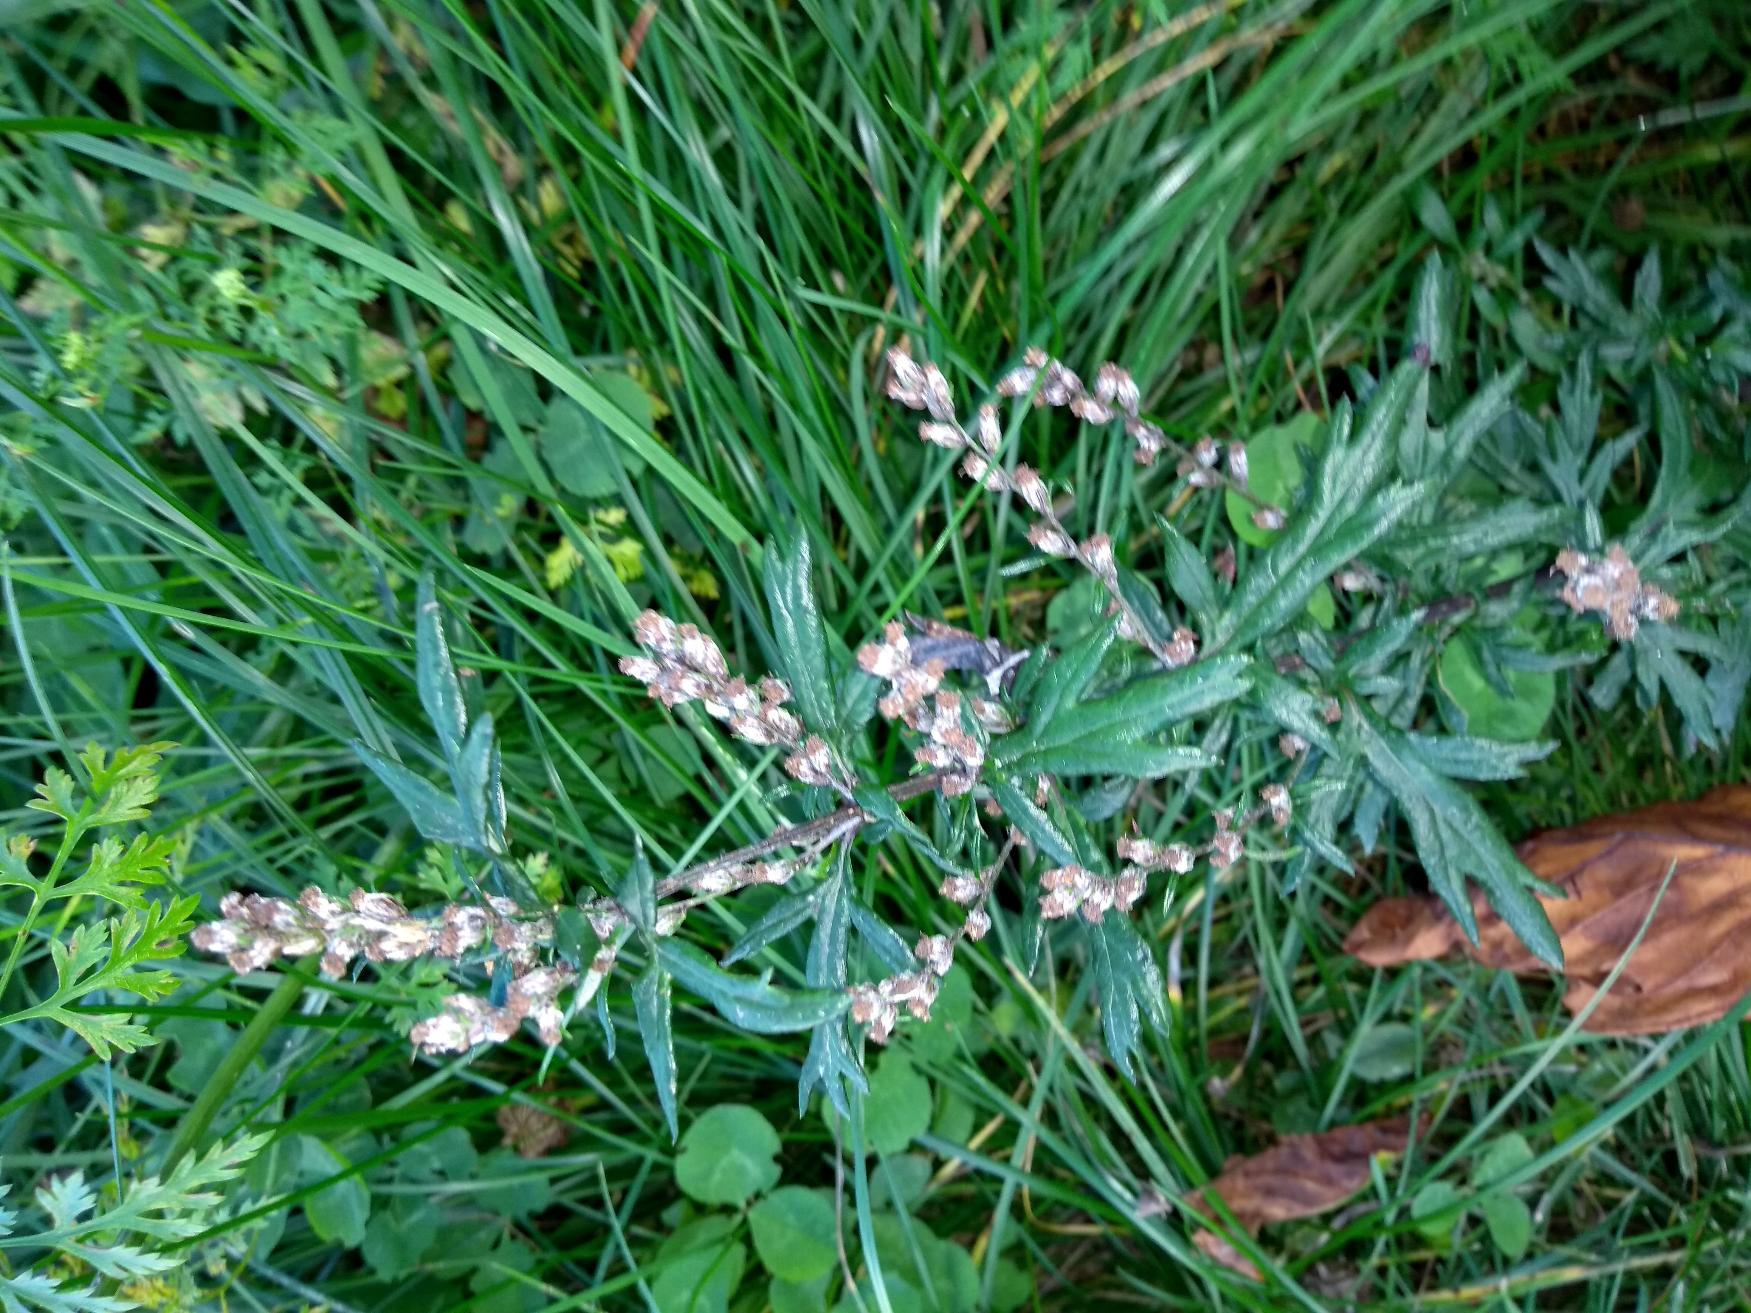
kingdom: Plantae
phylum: Tracheophyta
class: Magnoliopsida
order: Asterales
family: Asteraceae
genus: Artemisia
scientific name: Artemisia vulgaris
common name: Grå-bynke
